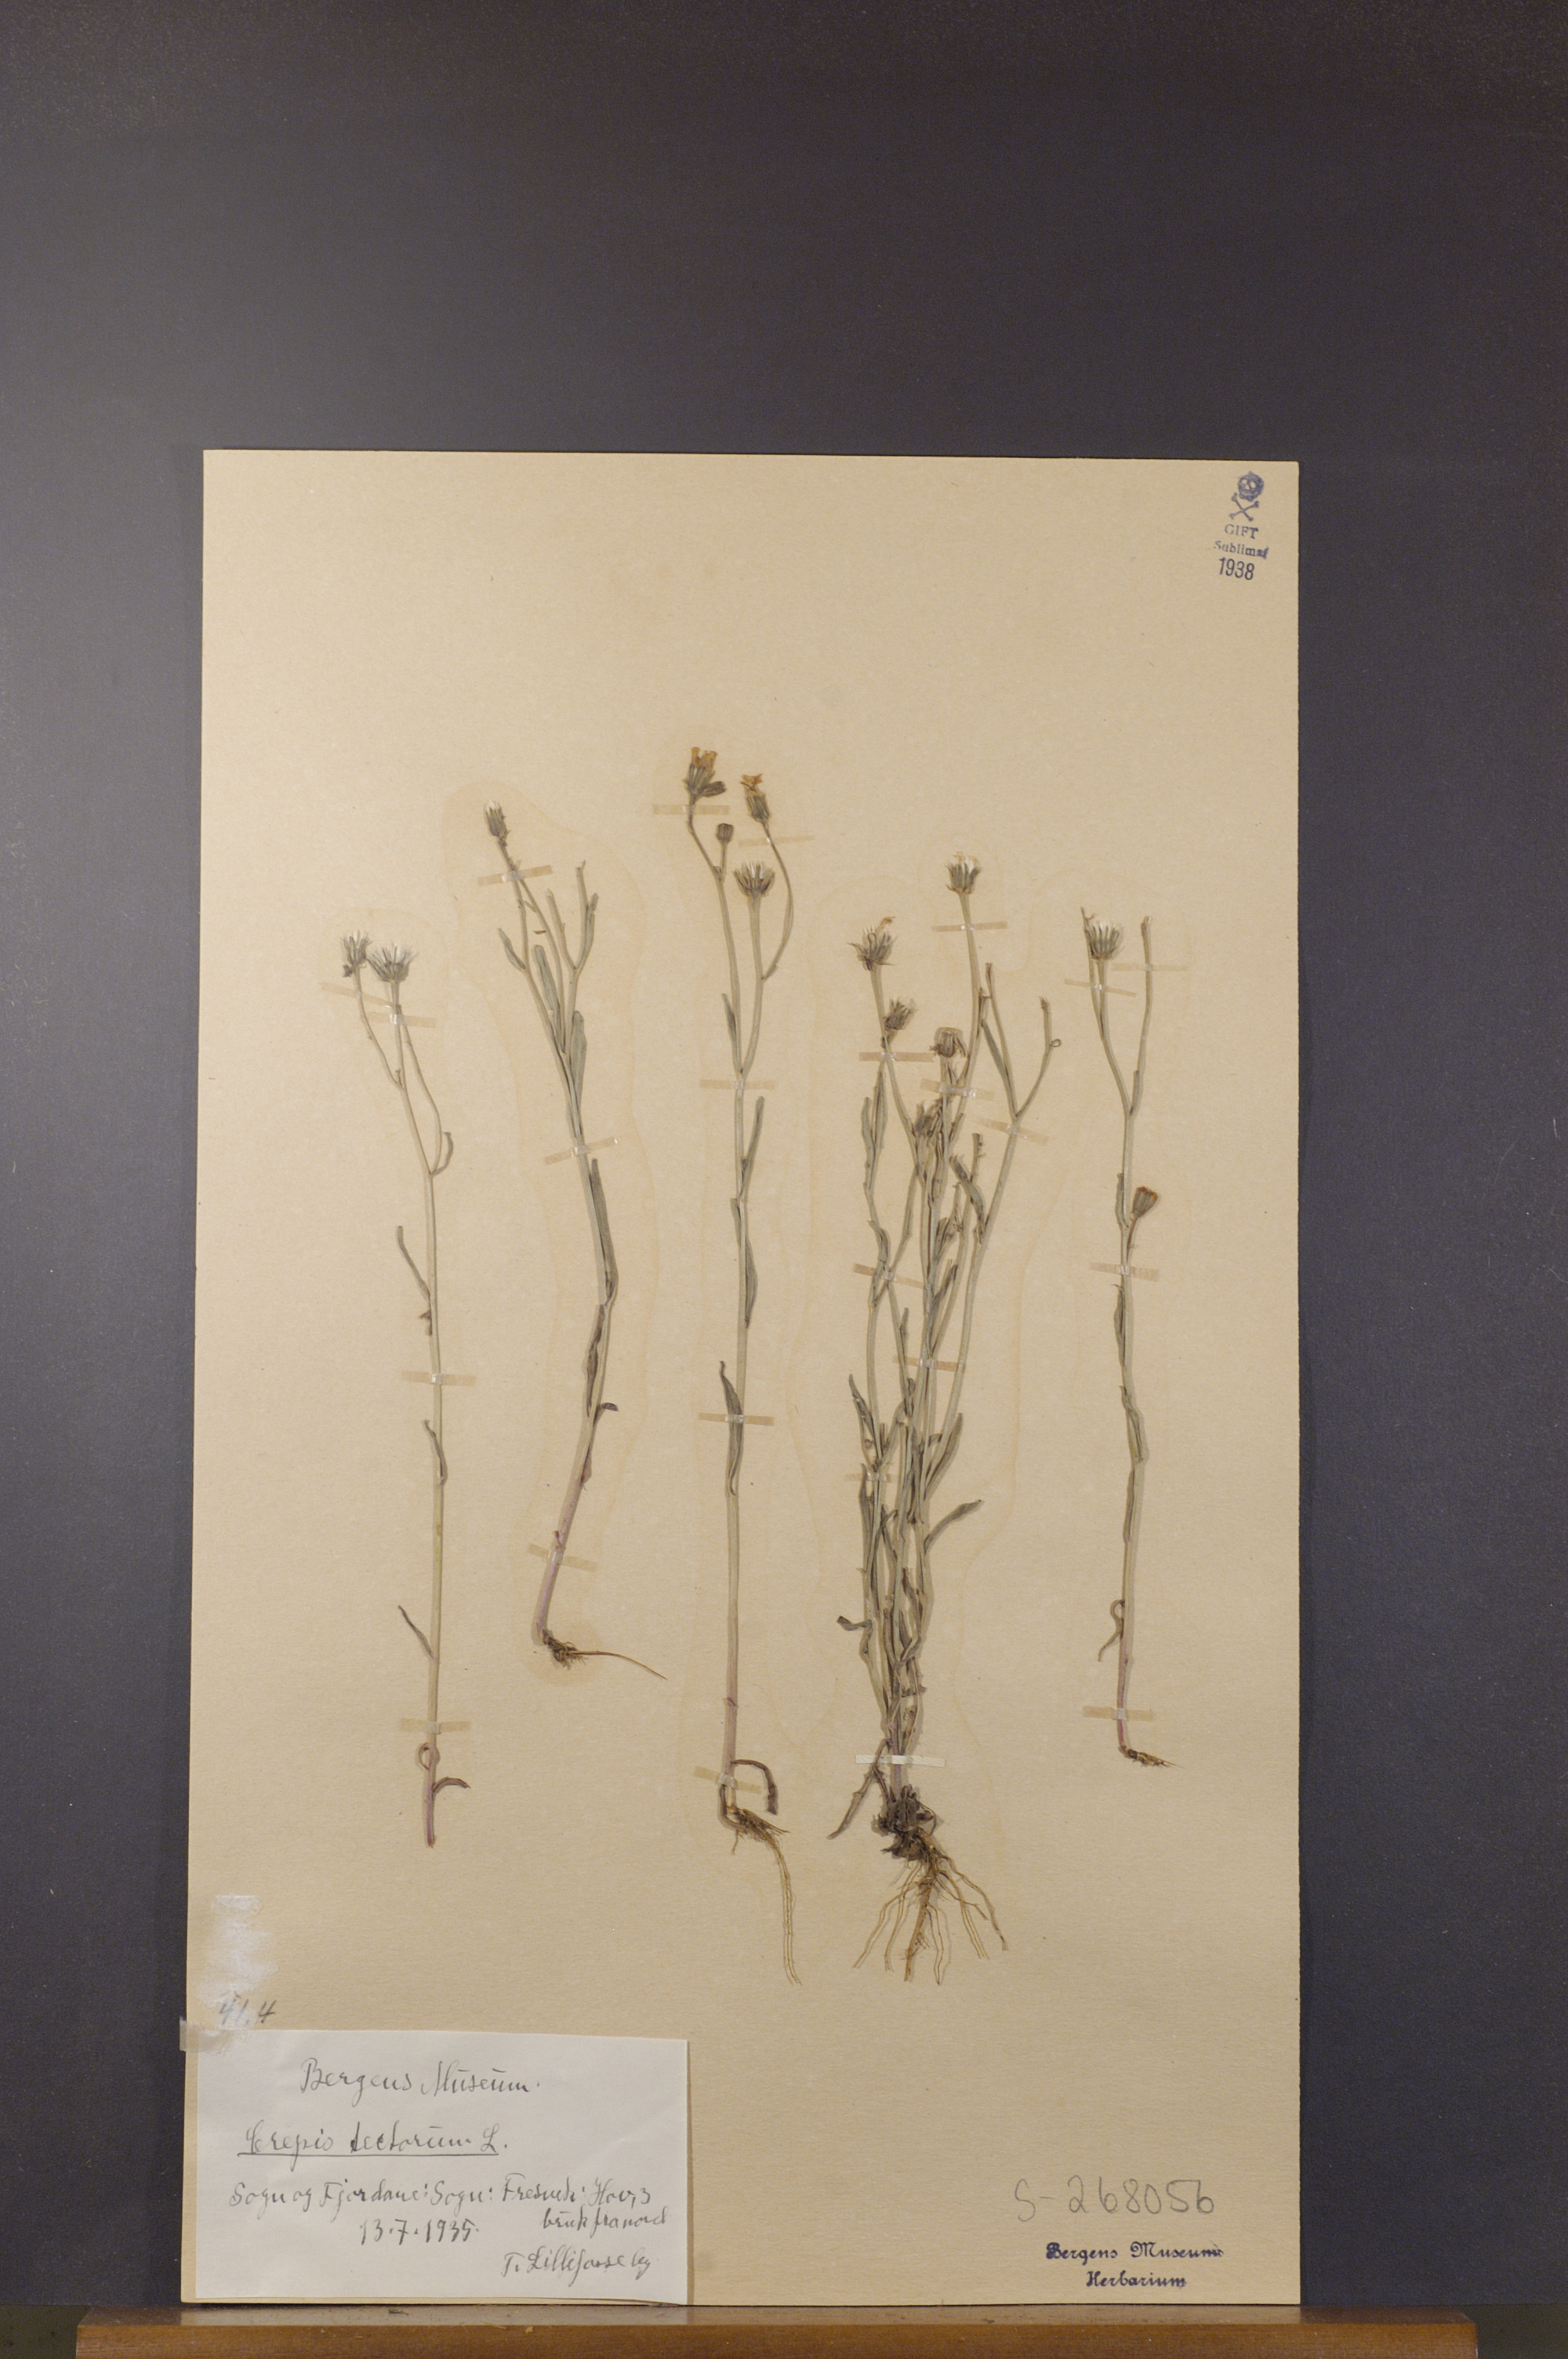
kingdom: Plantae
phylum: Tracheophyta
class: Magnoliopsida
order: Asterales
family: Asteraceae
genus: Crepis
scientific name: Crepis tectorum
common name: Narrow-leaved hawk's-beard
